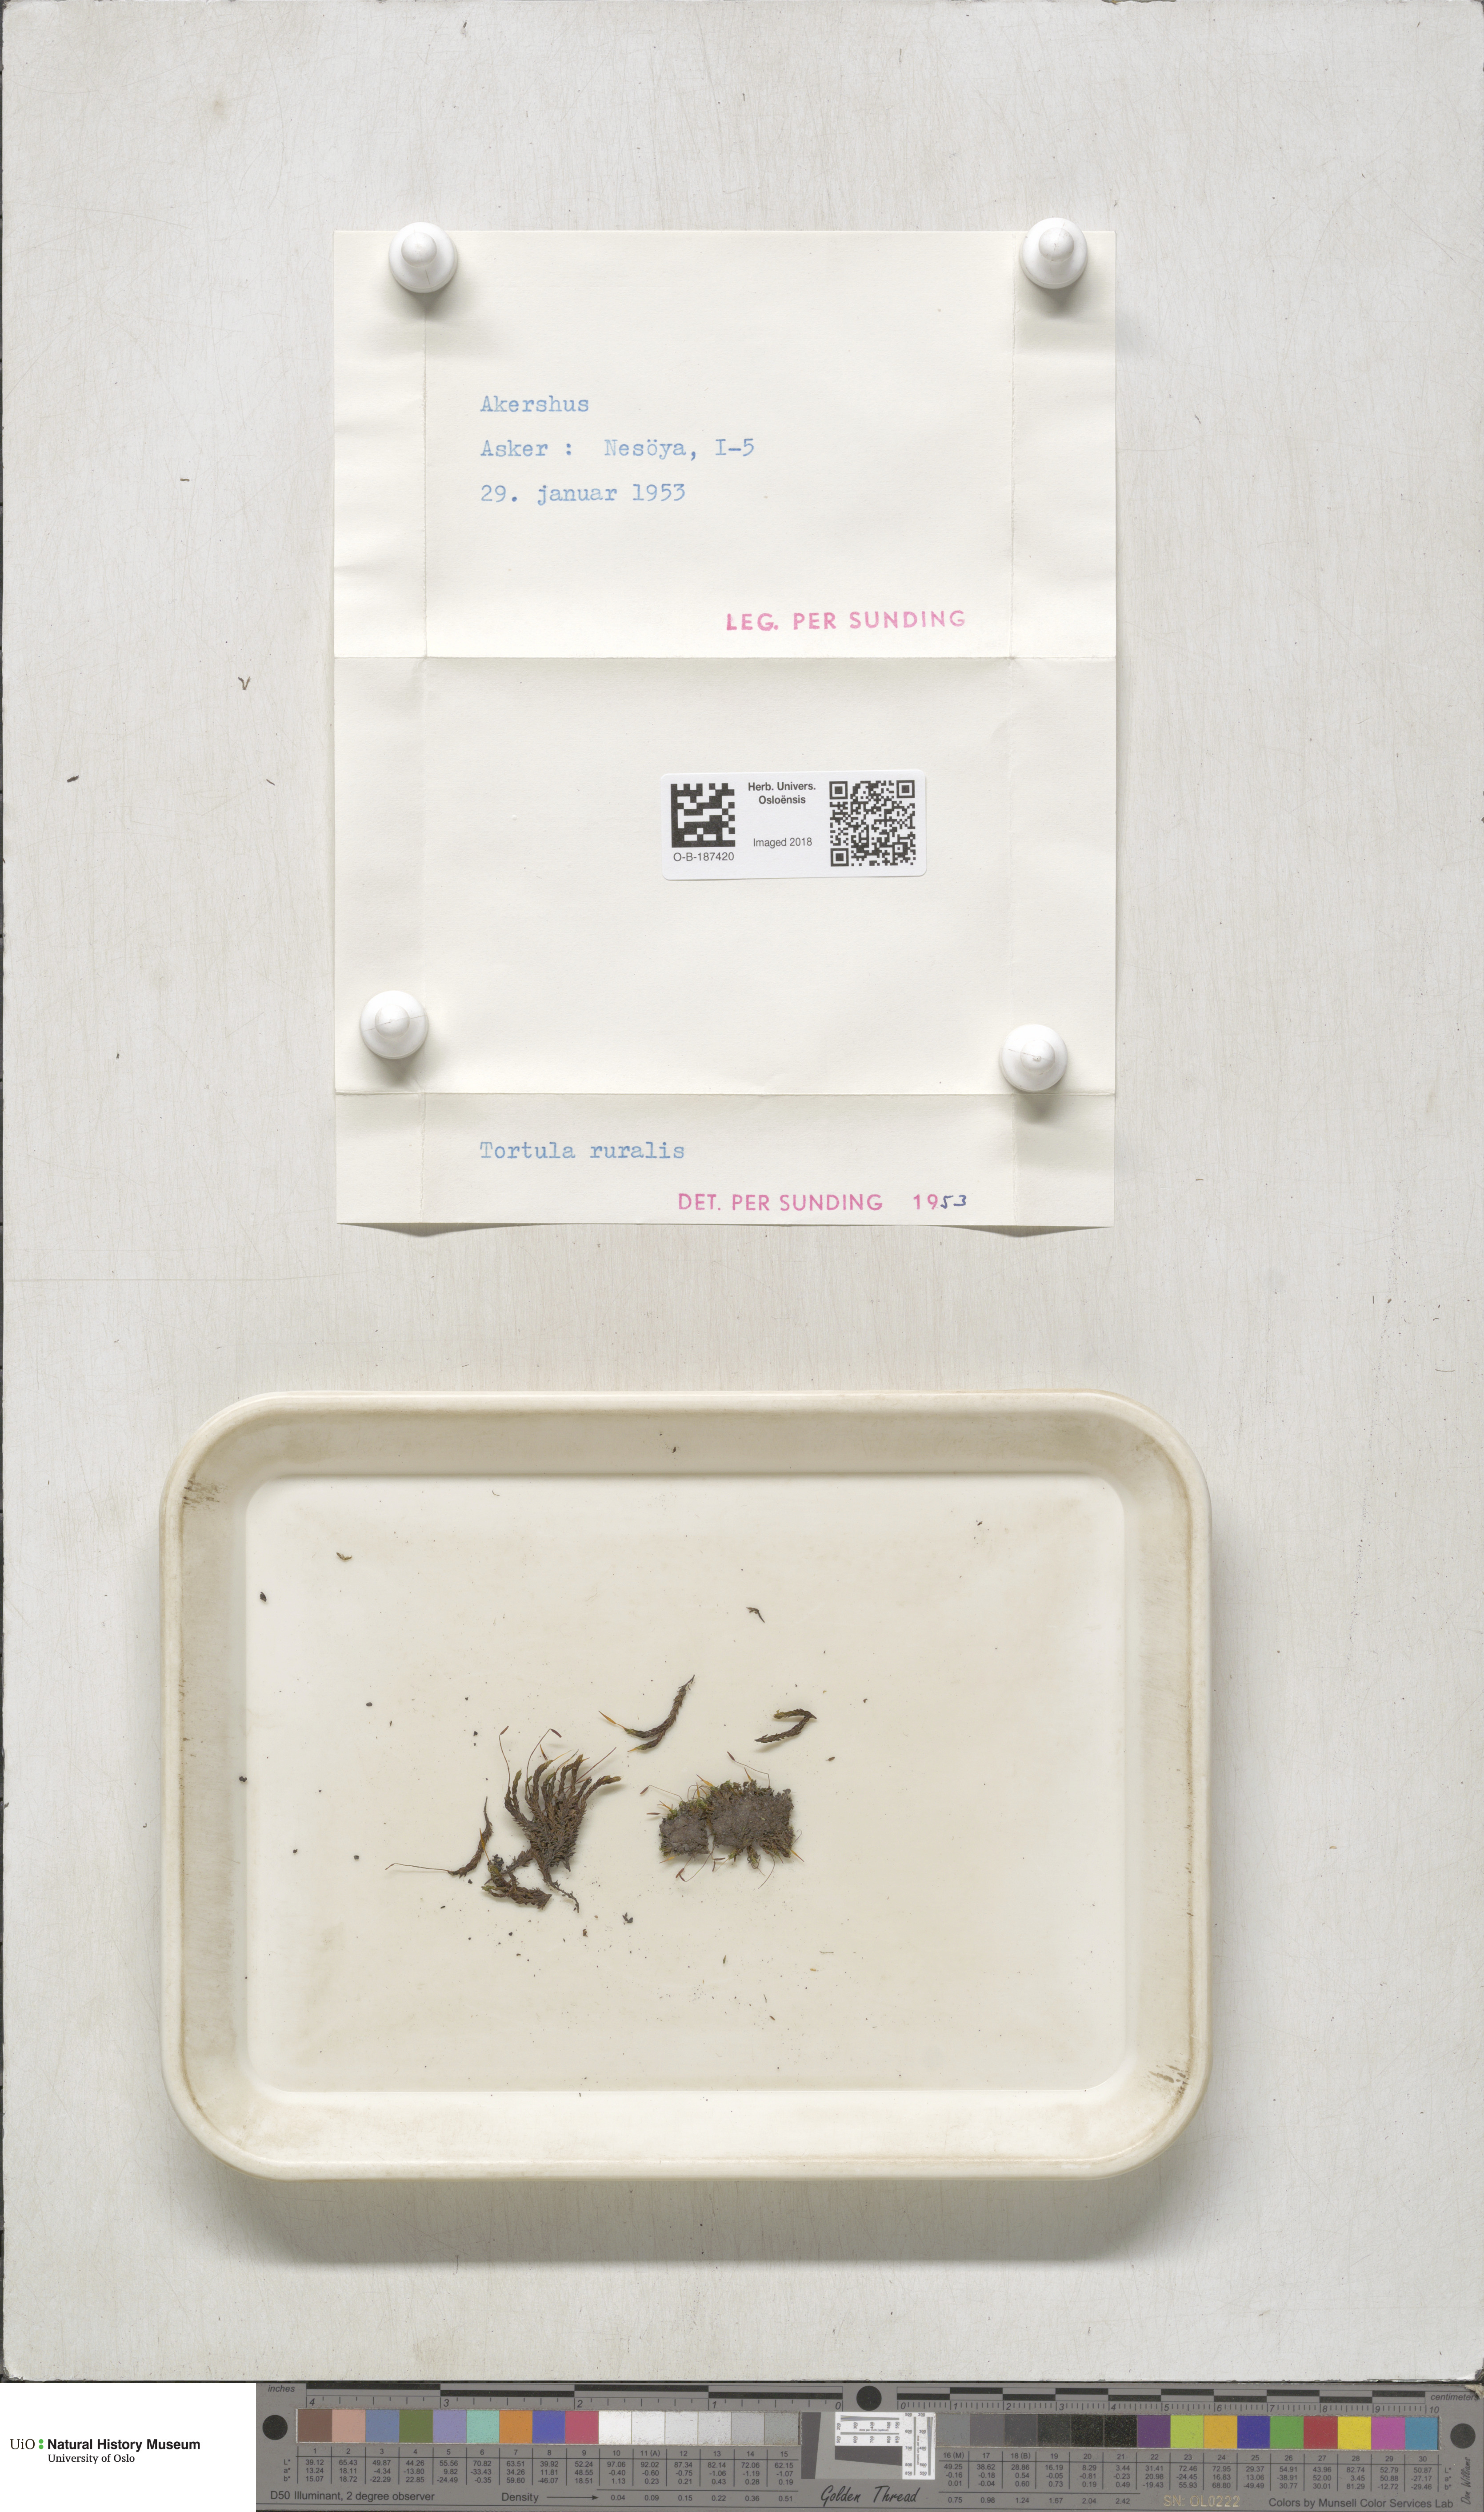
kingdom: Plantae
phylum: Bryophyta
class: Bryopsida
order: Pottiales
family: Pottiaceae
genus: Syntrichia
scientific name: Syntrichia ruralis
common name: Sidewalk screw moss
